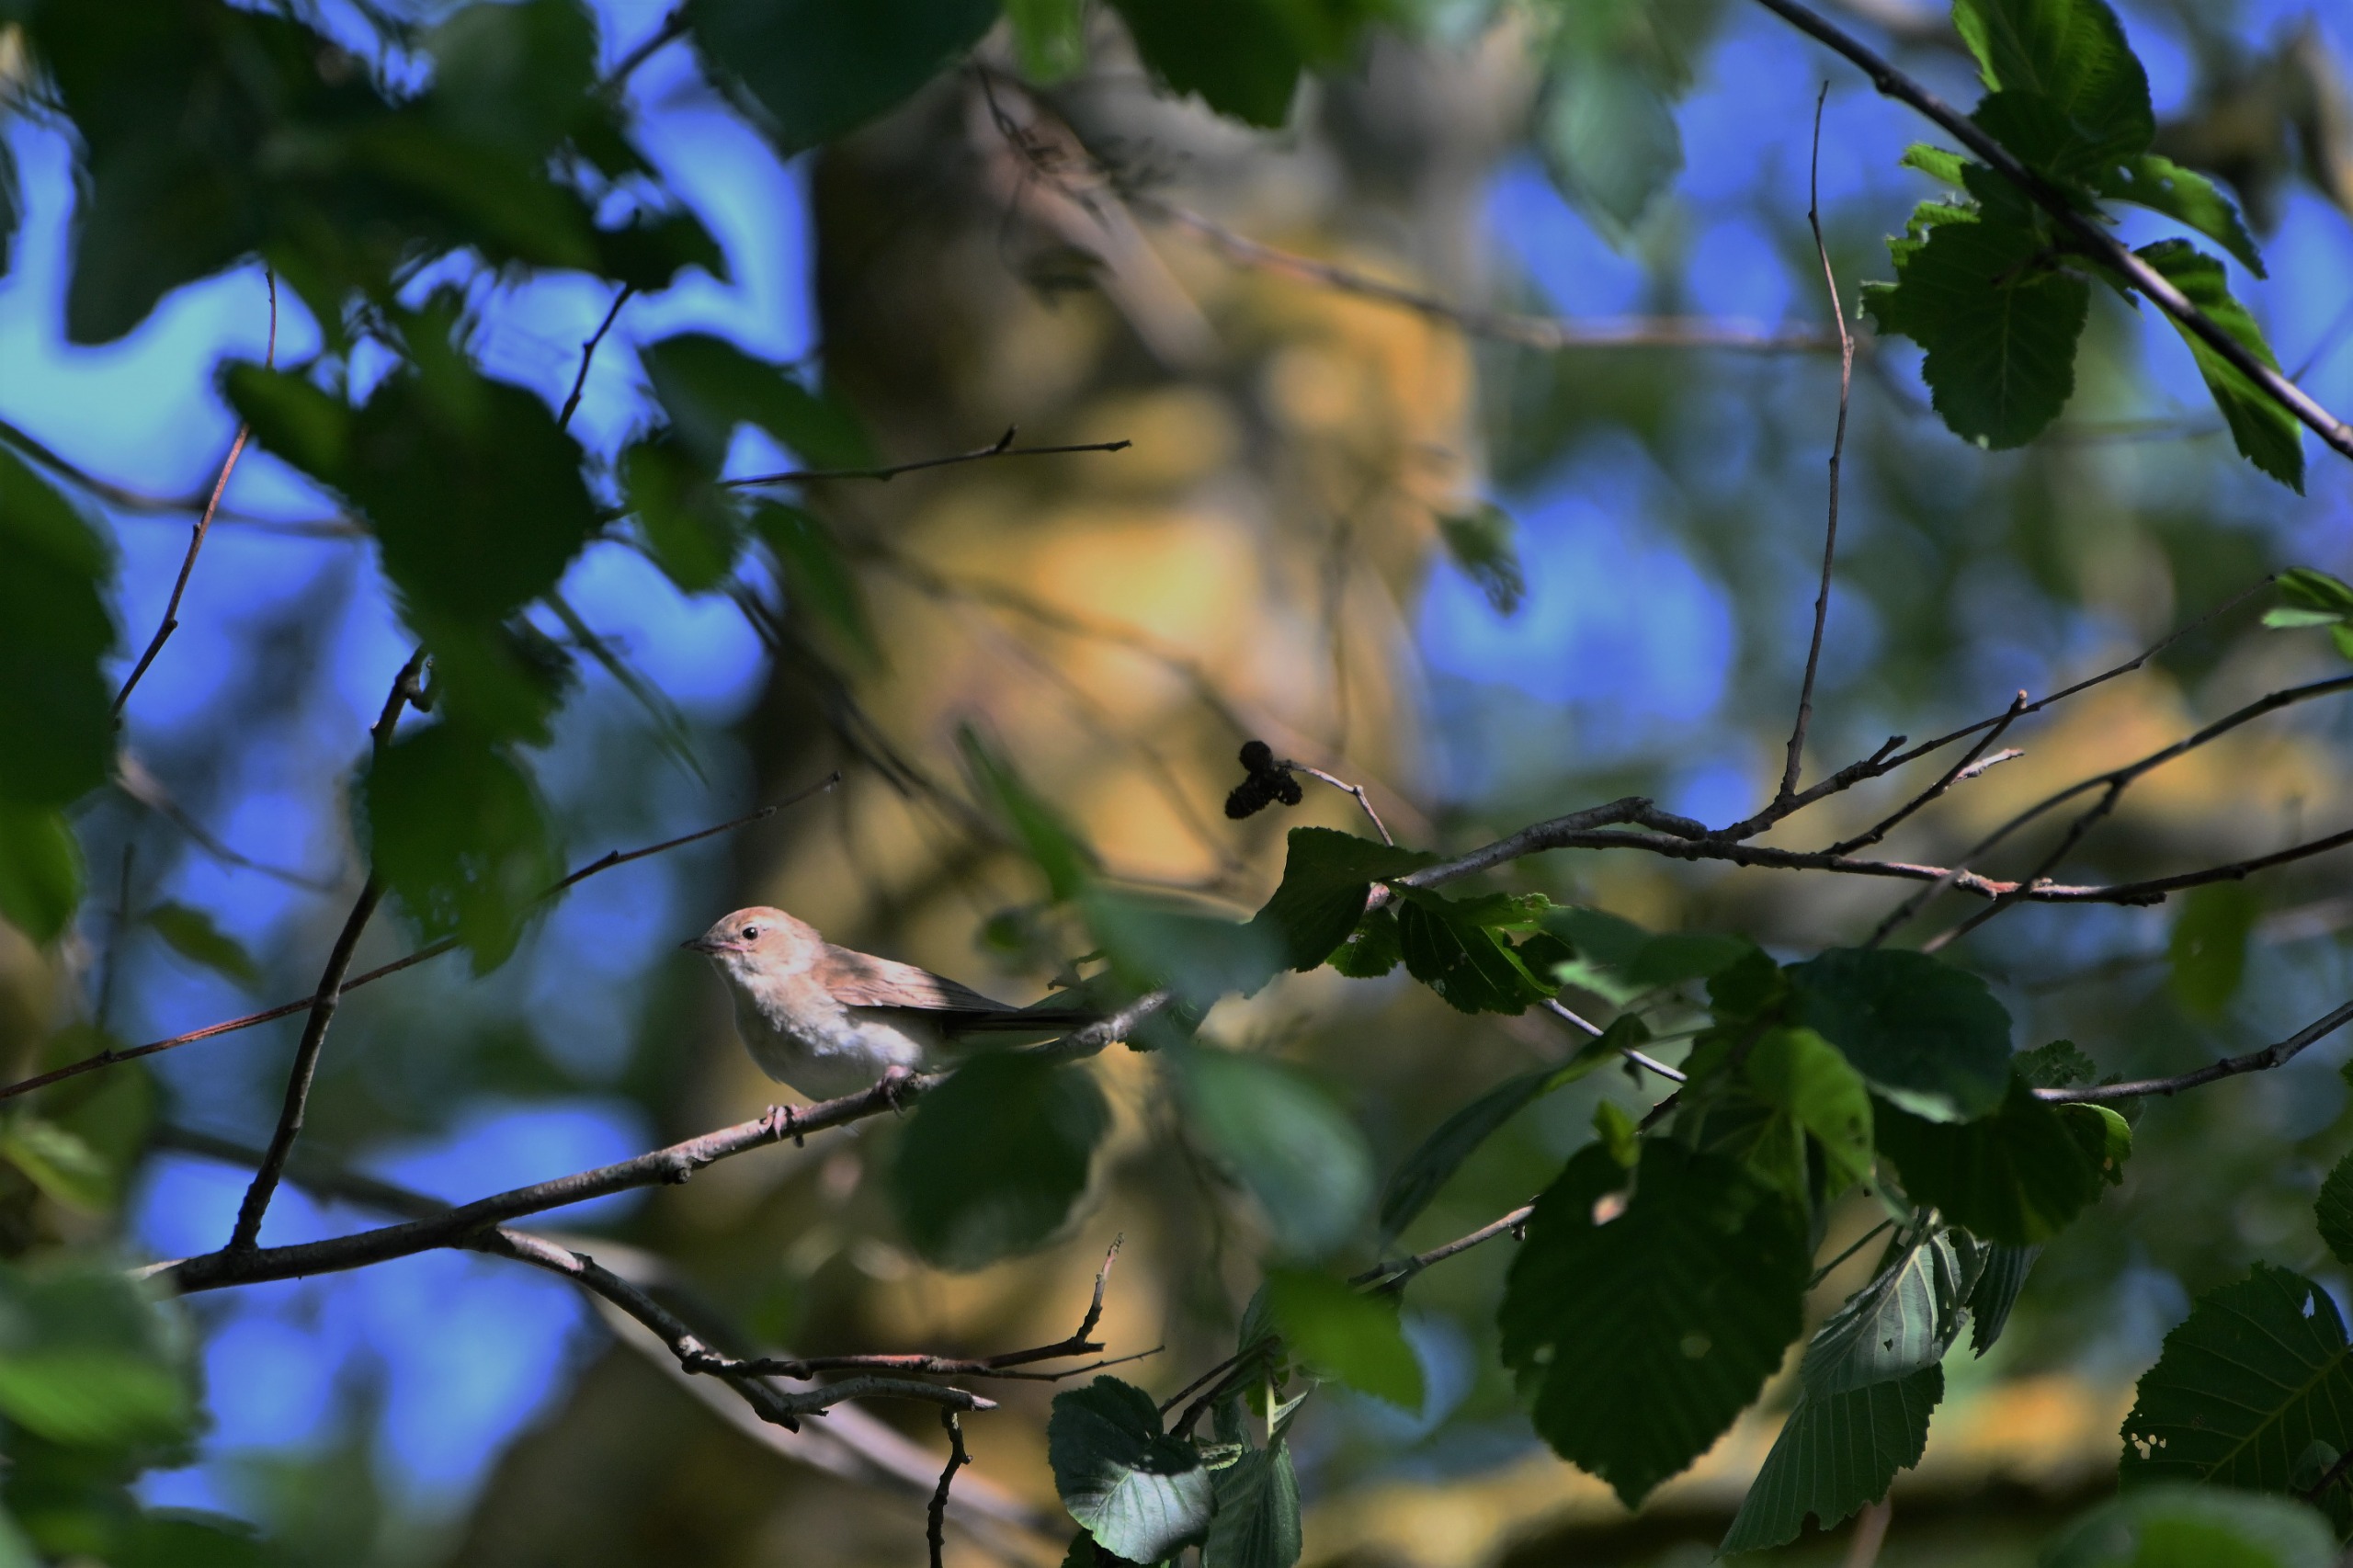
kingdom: Animalia
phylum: Chordata
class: Aves
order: Passeriformes
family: Sylviidae
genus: Sylvia
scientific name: Sylvia borin
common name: Havesanger
